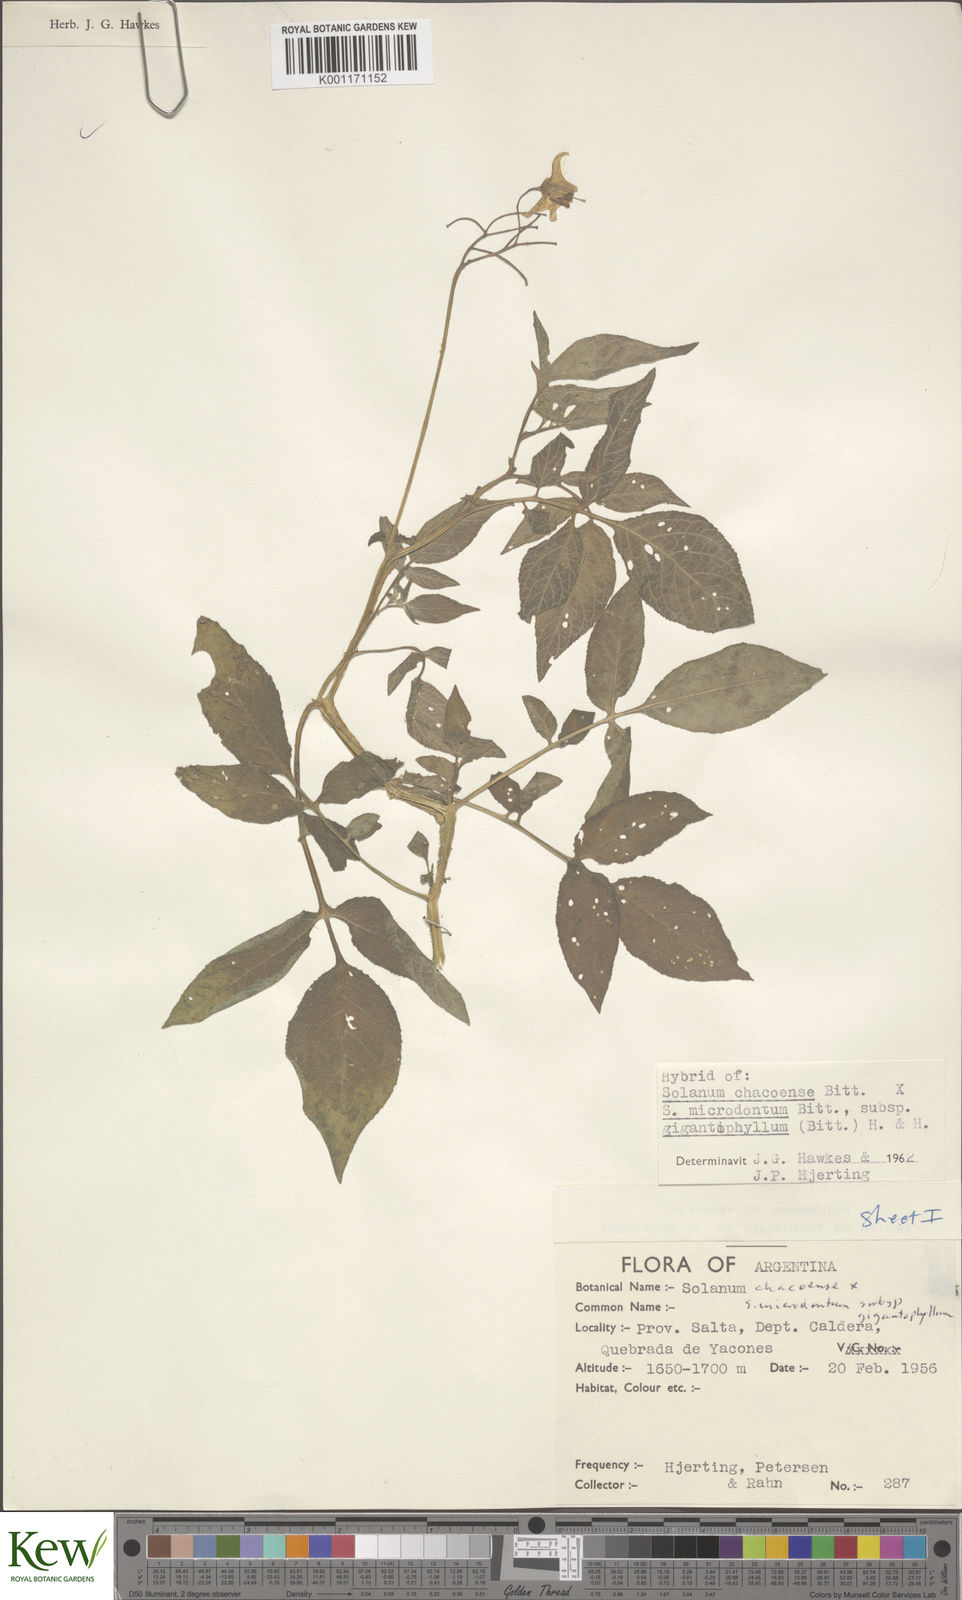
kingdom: Plantae
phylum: Tracheophyta
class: Magnoliopsida
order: Solanales
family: Solanaceae
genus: Solanum
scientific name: Solanum microdontum
